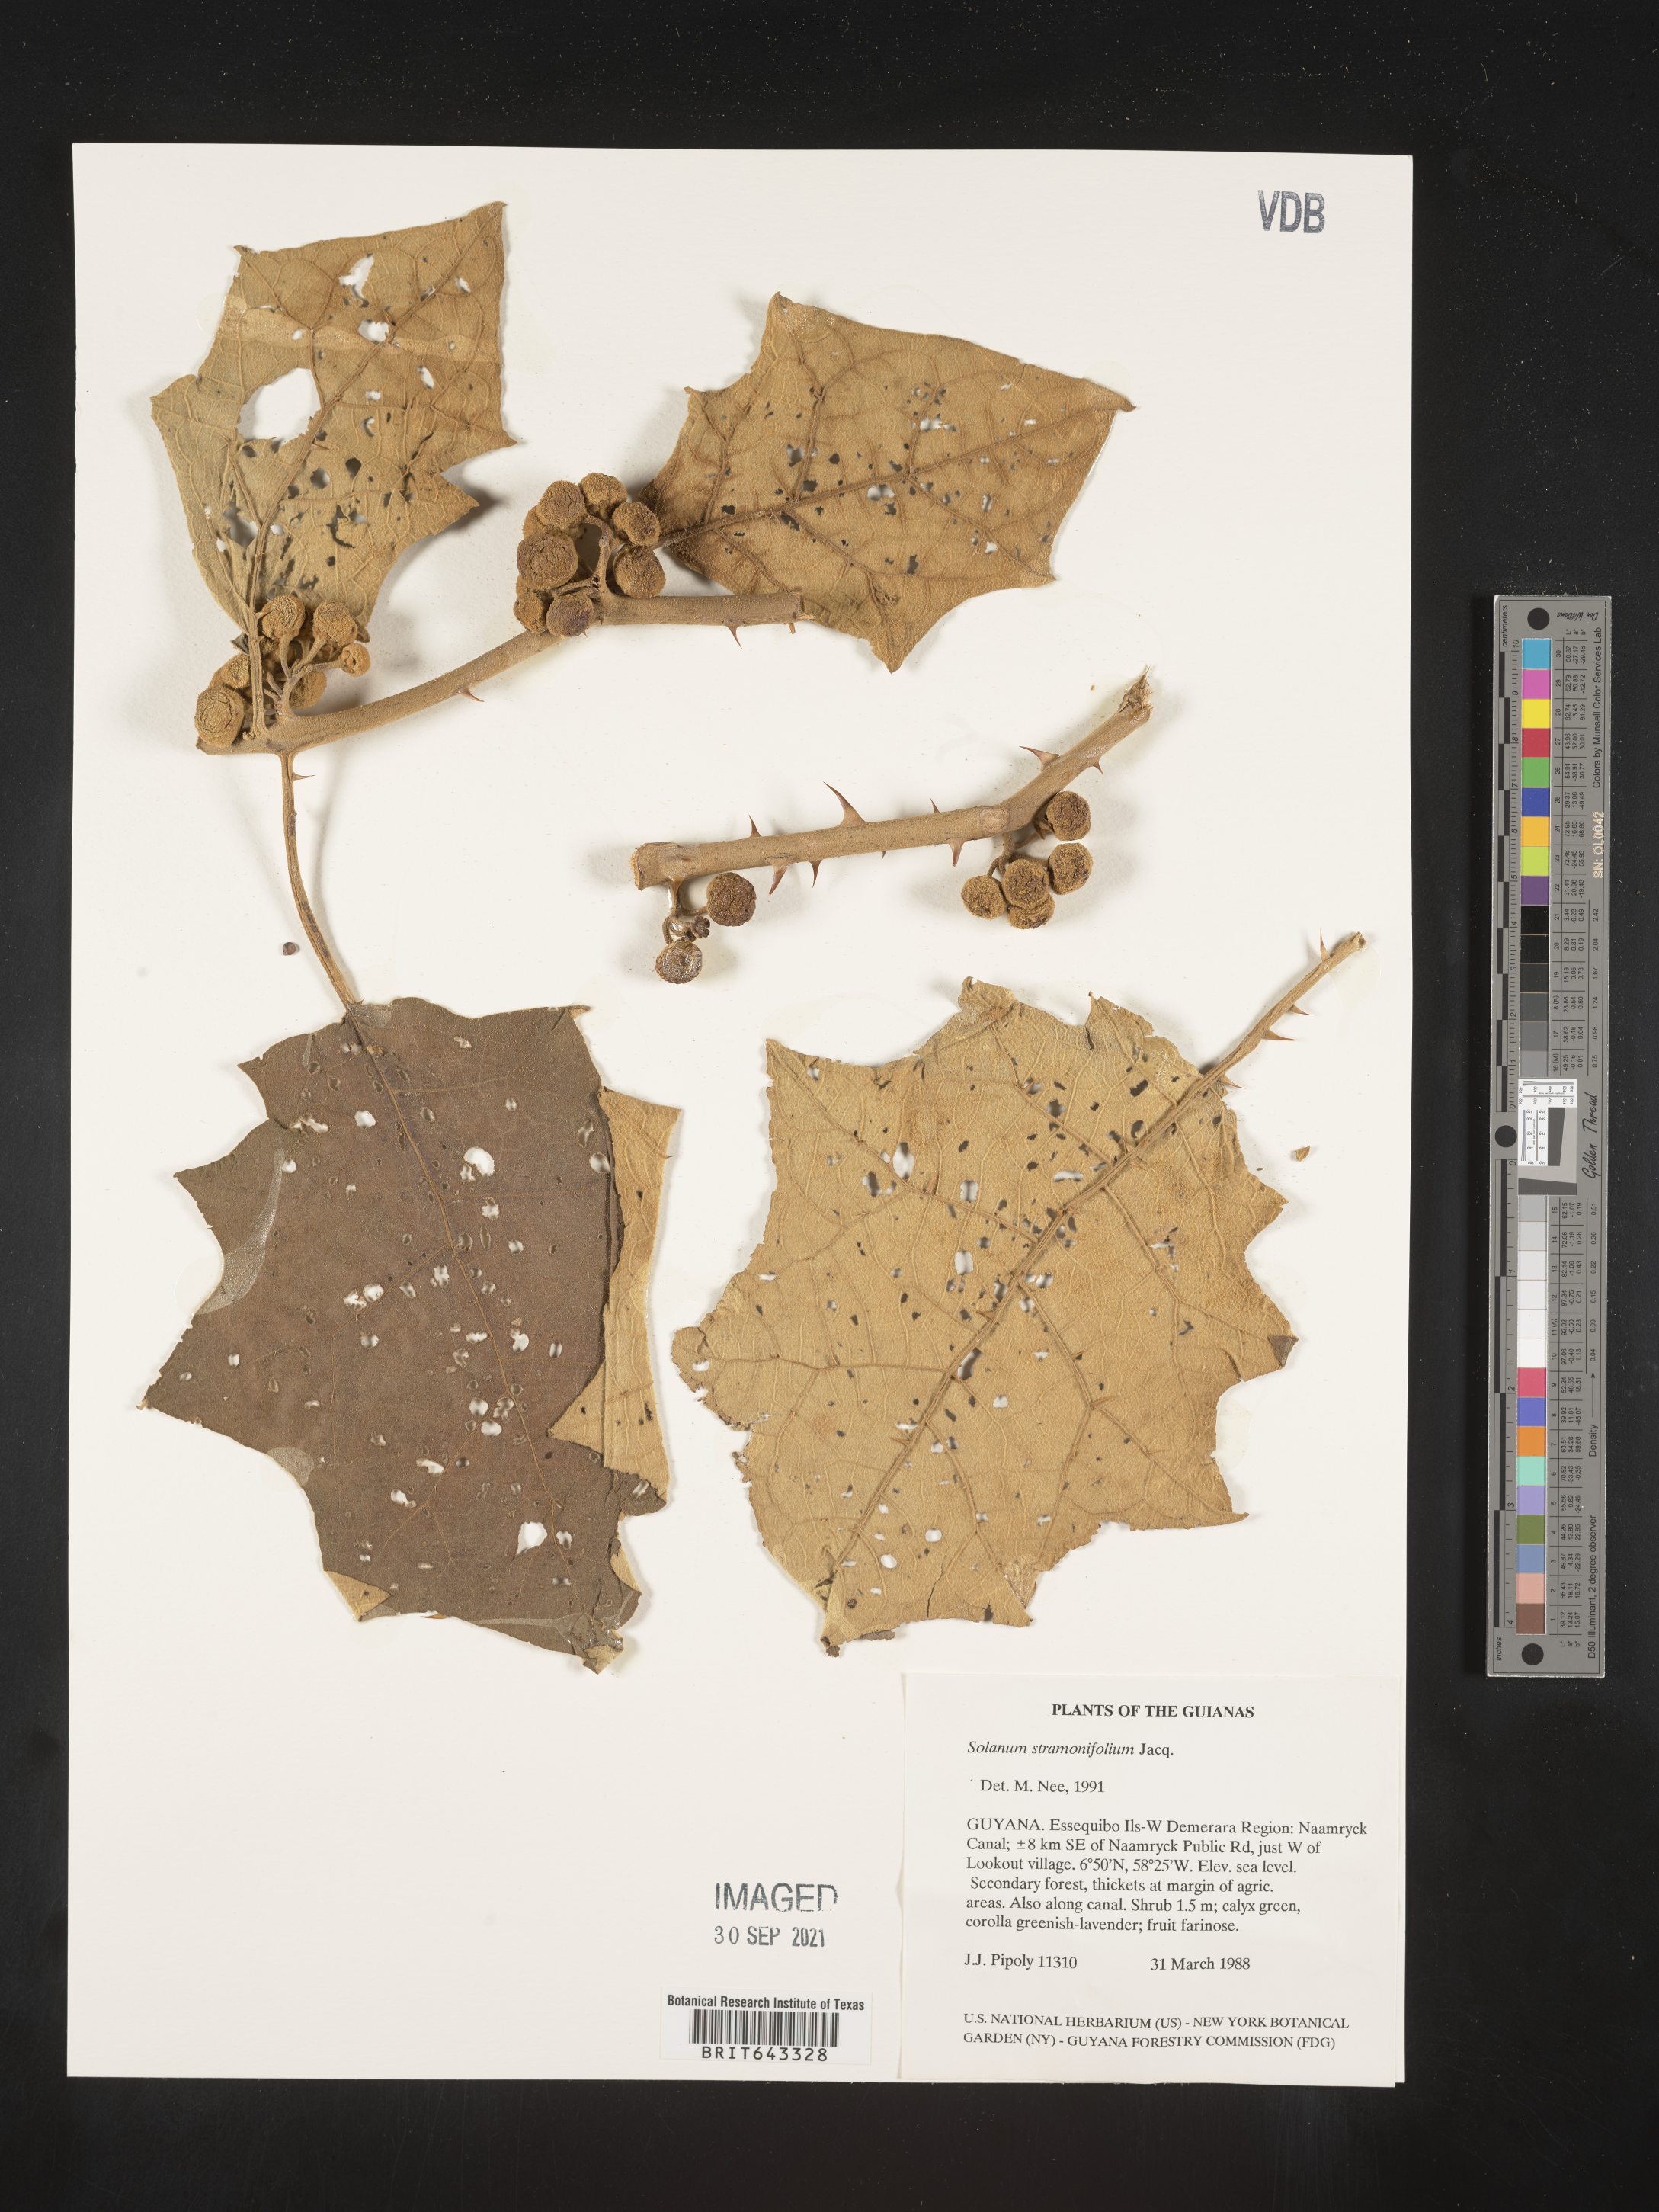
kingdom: Plantae
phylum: Tracheophyta
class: Magnoliopsida
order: Solanales
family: Solanaceae
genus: Solanum
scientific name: Solanum
